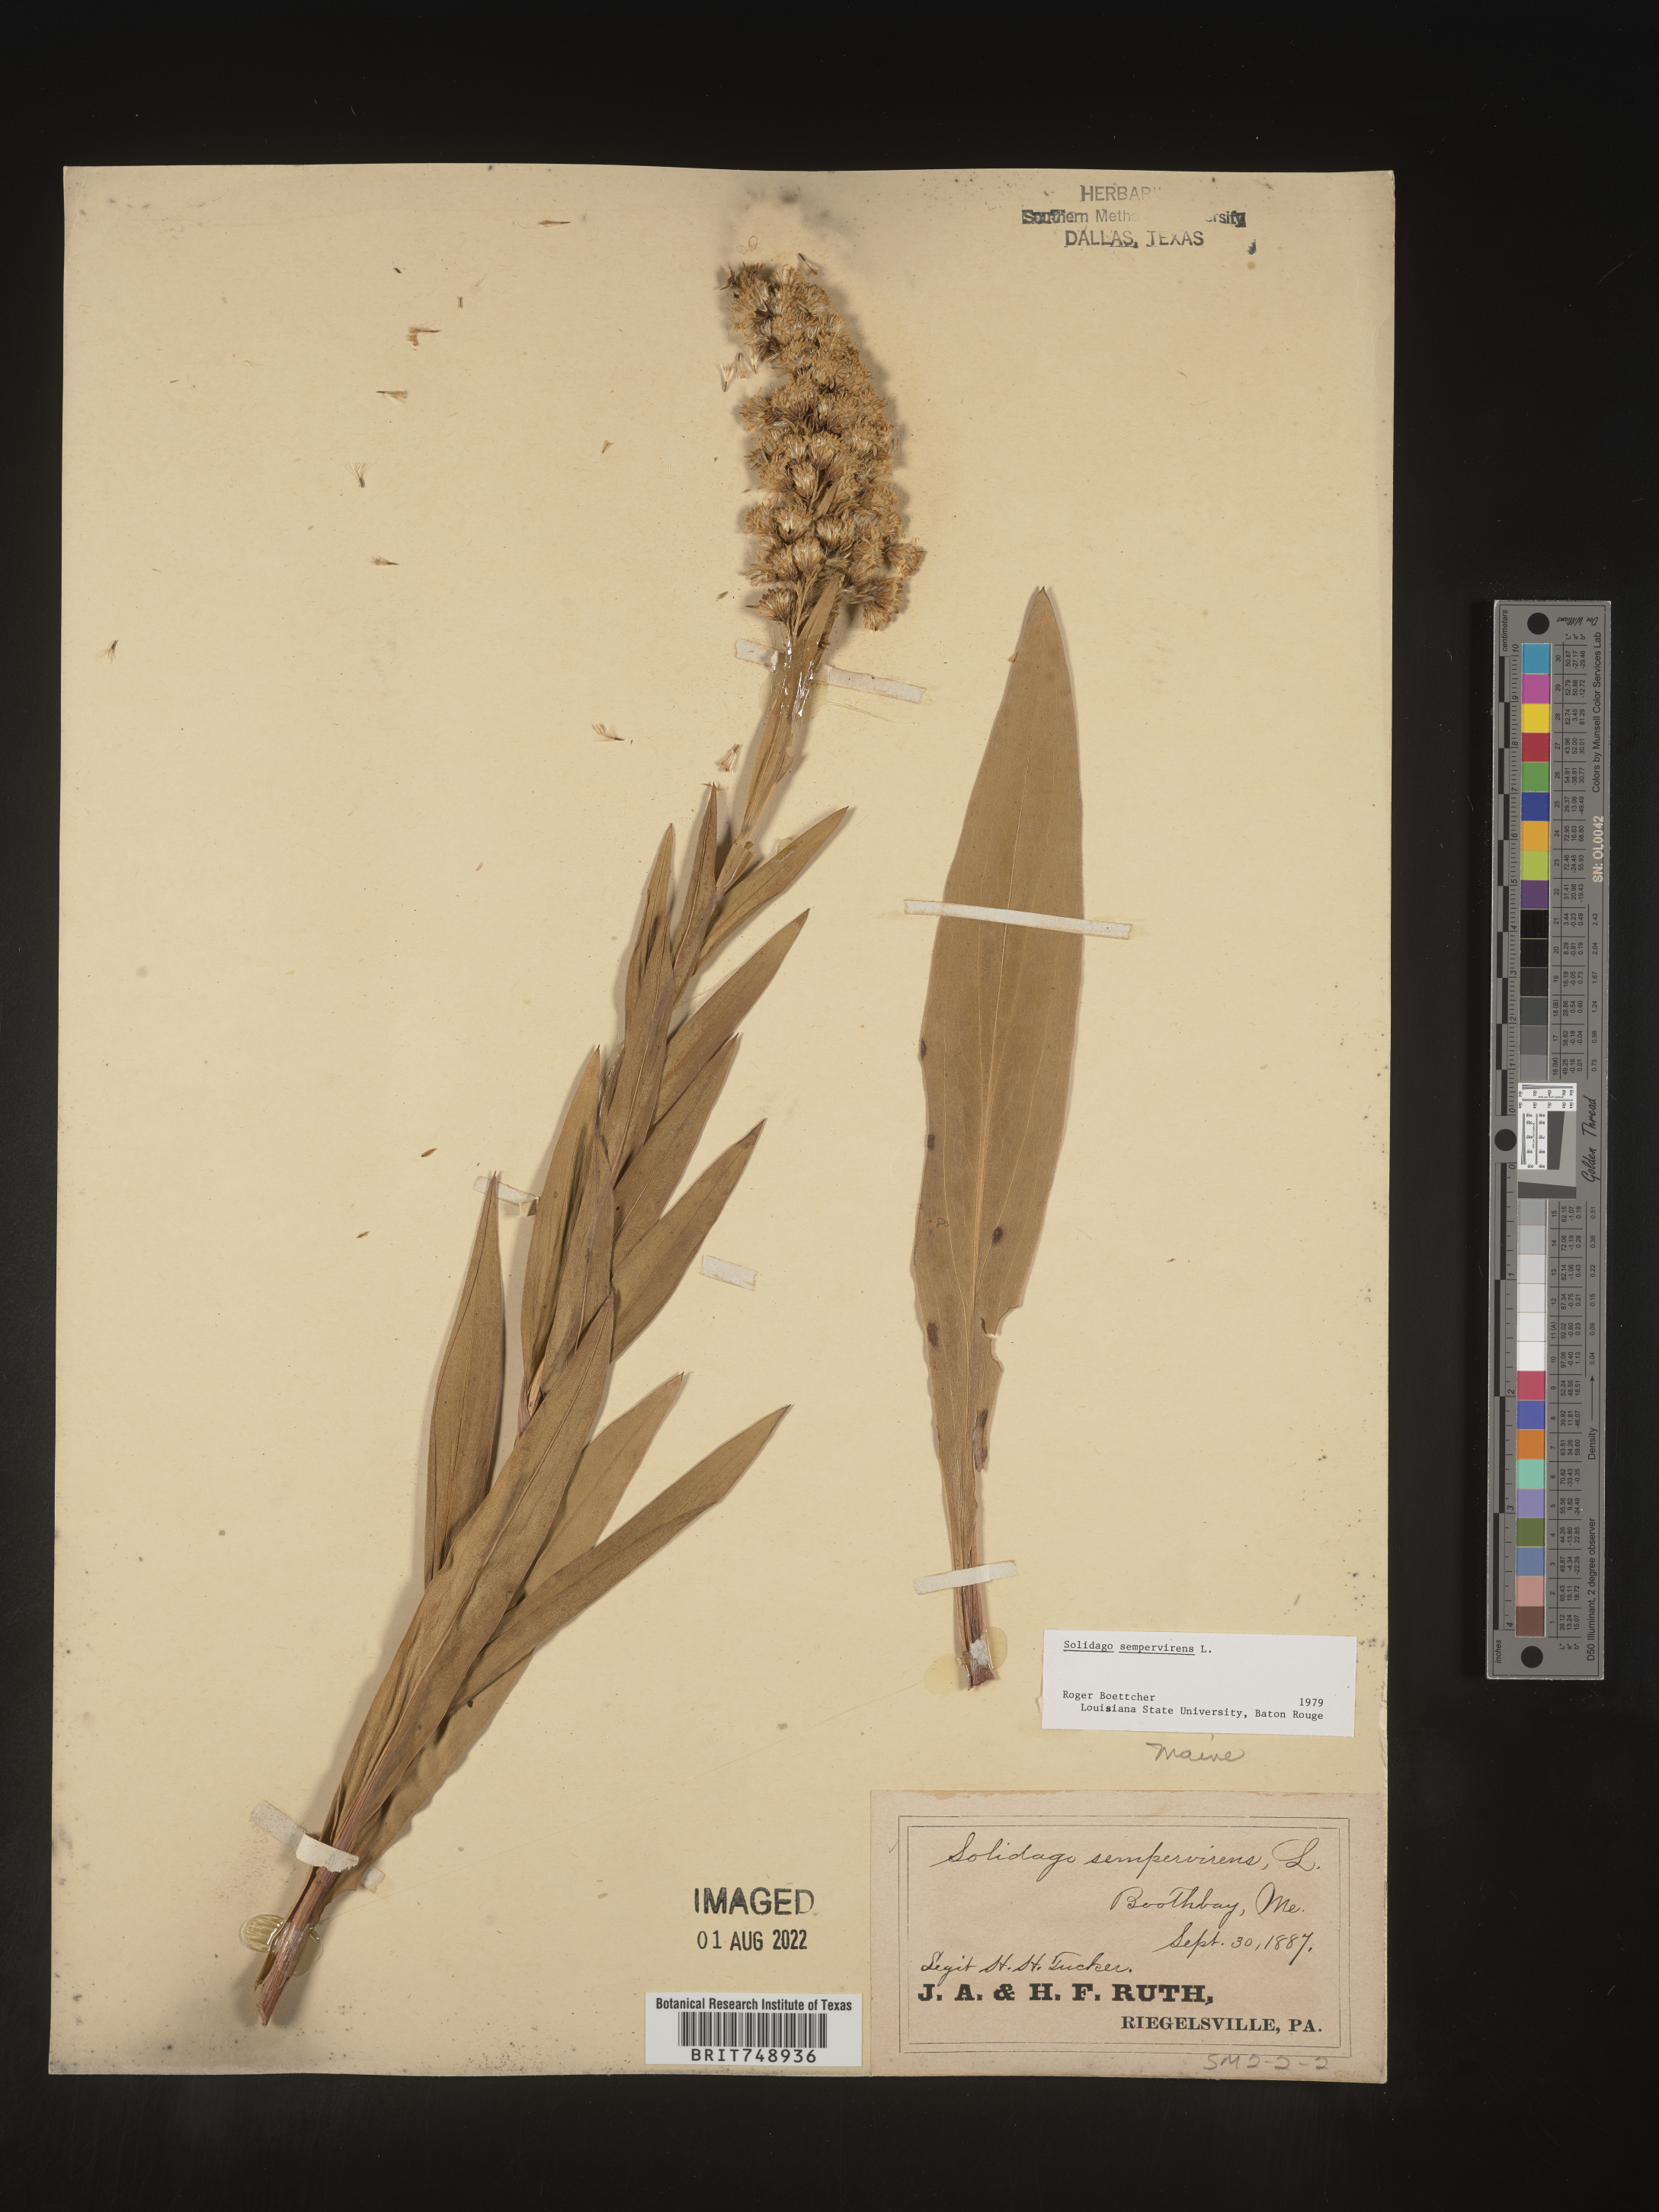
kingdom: Plantae
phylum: Tracheophyta
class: Magnoliopsida
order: Asterales
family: Asteraceae
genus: Solidago
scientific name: Solidago sempervirens
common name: Salt-marsh goldenrod
